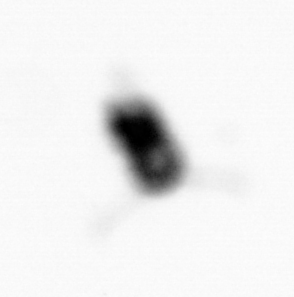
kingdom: Animalia
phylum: Arthropoda
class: Copepoda
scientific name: Copepoda
